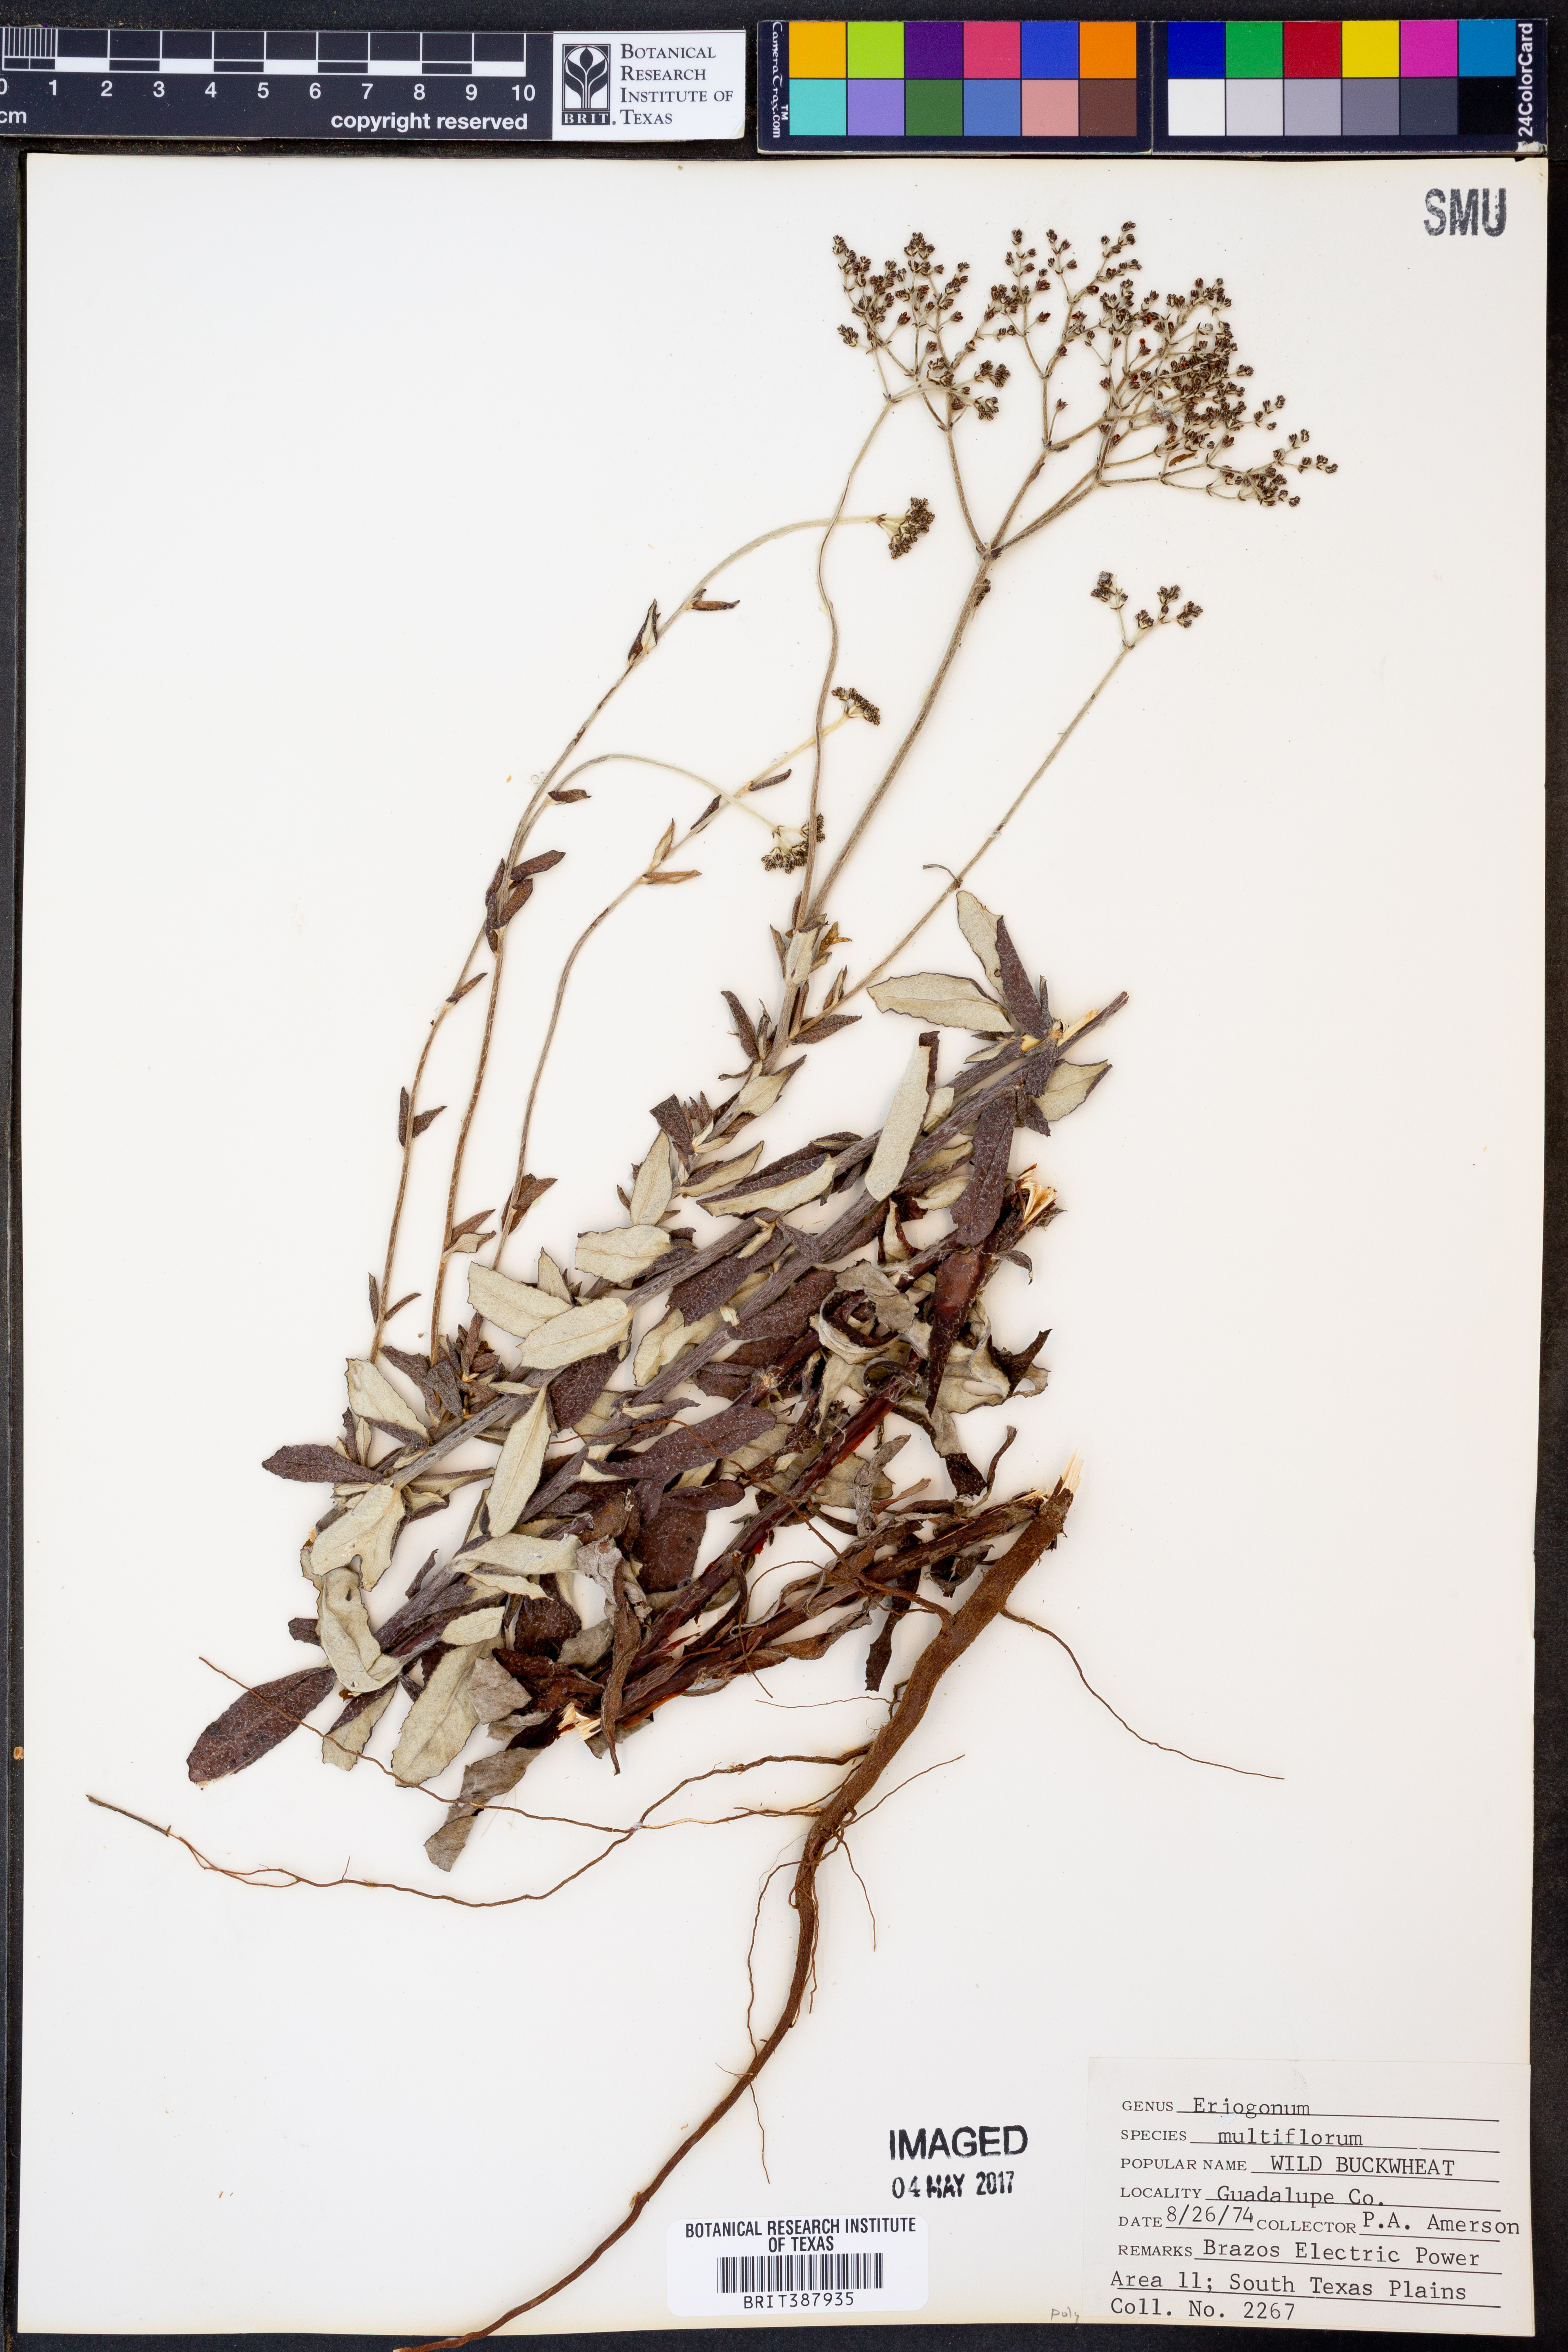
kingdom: Plantae
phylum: Tracheophyta
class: Magnoliopsida
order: Caryophyllales
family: Polygonaceae
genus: Eriogonum
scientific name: Eriogonum multiflorum
